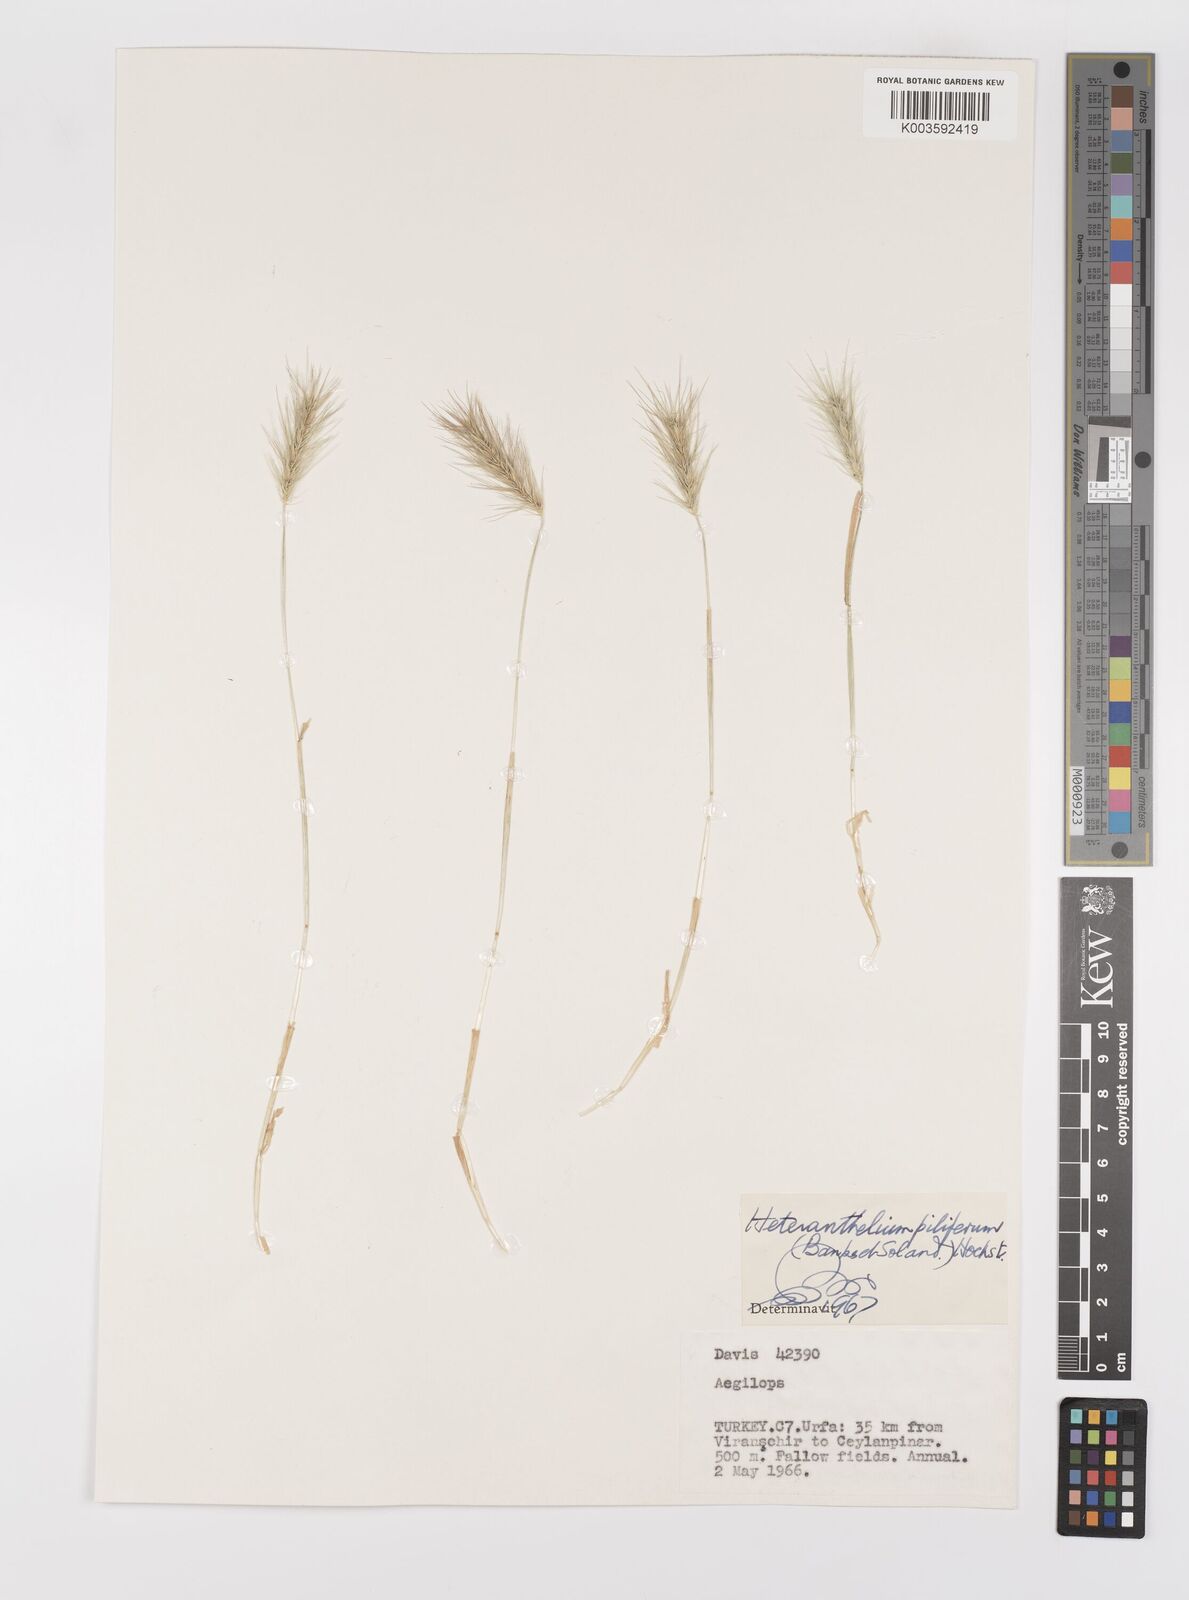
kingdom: Plantae
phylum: Tracheophyta
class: Liliopsida
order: Poales
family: Poaceae
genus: Heteranthelium
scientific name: Heteranthelium piliferum
